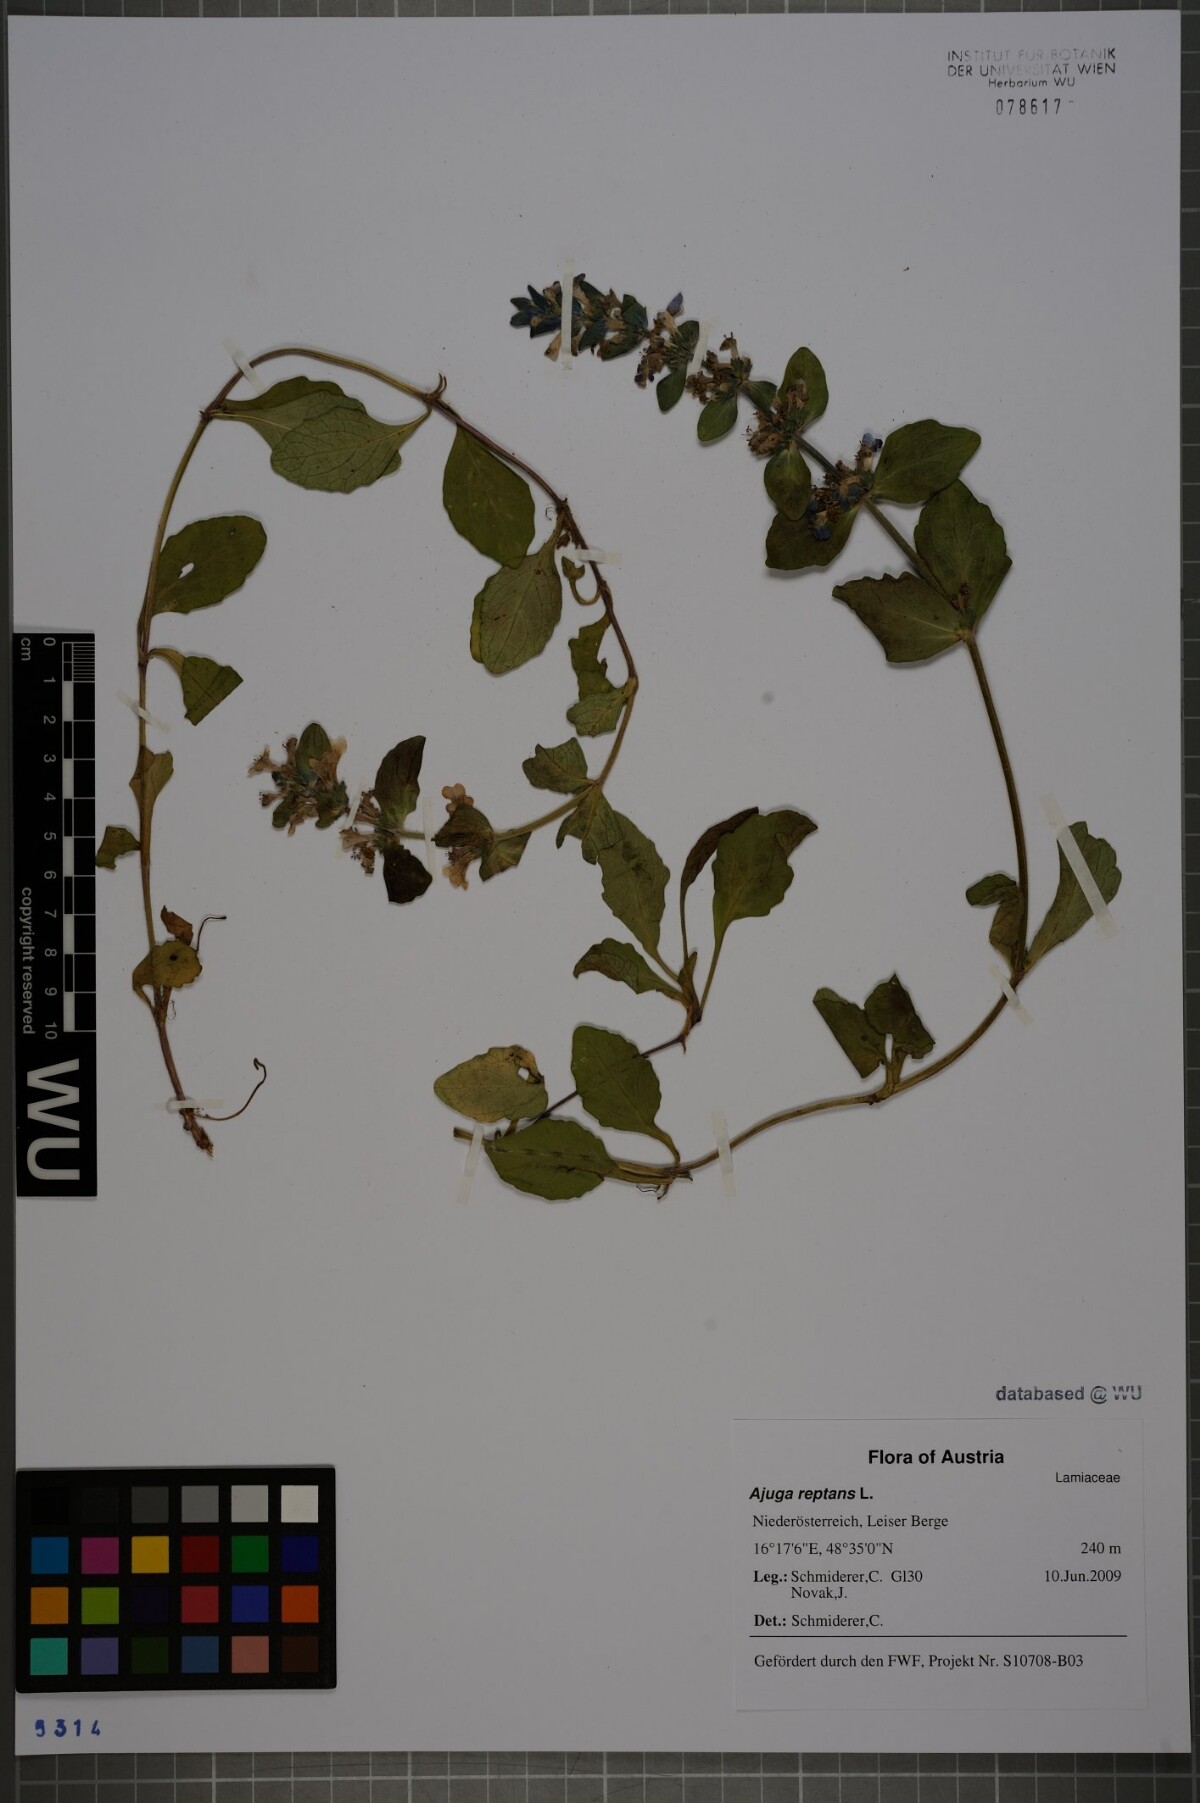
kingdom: Plantae
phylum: Tracheophyta
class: Magnoliopsida
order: Lamiales
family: Lamiaceae
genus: Ajuga
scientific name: Ajuga reptans
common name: Bugle
